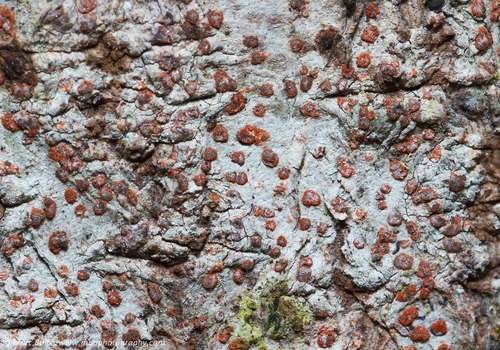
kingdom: Fungi
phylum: Ascomycota
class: Arthoniomycetes
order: Arthoniales
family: Arthoniaceae
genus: Coniocarpon
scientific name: Coniocarpon cinnabarinum
